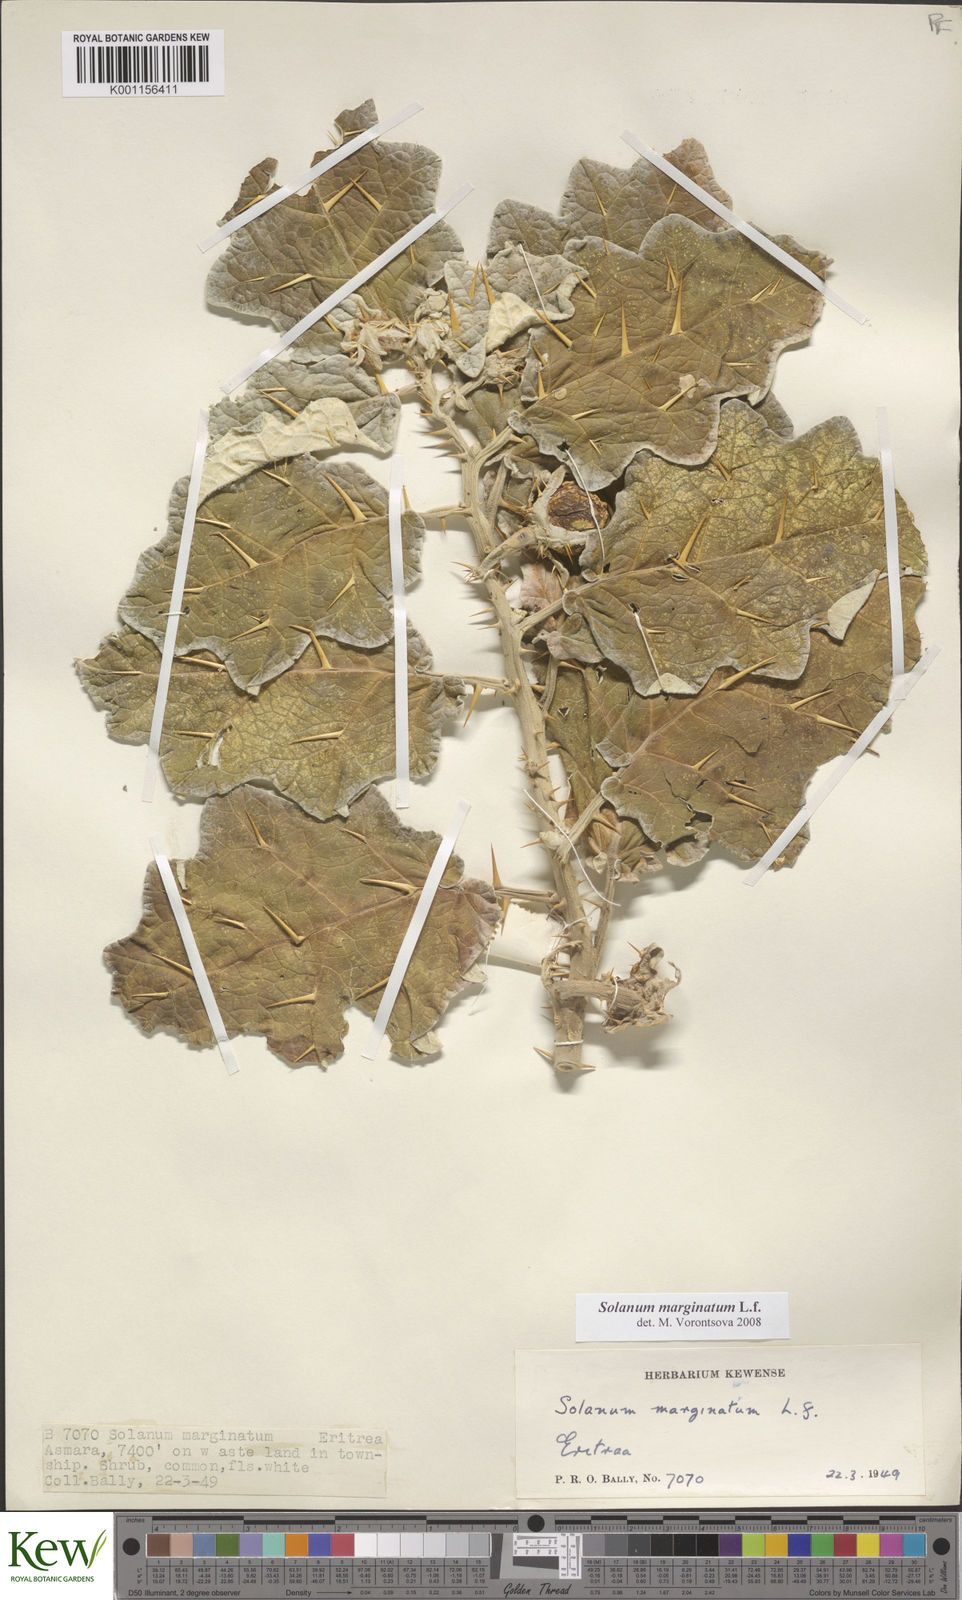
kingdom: Plantae
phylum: Tracheophyta
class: Magnoliopsida
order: Solanales
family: Solanaceae
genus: Solanum
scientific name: Solanum marginatum
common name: Purple african nightshade
